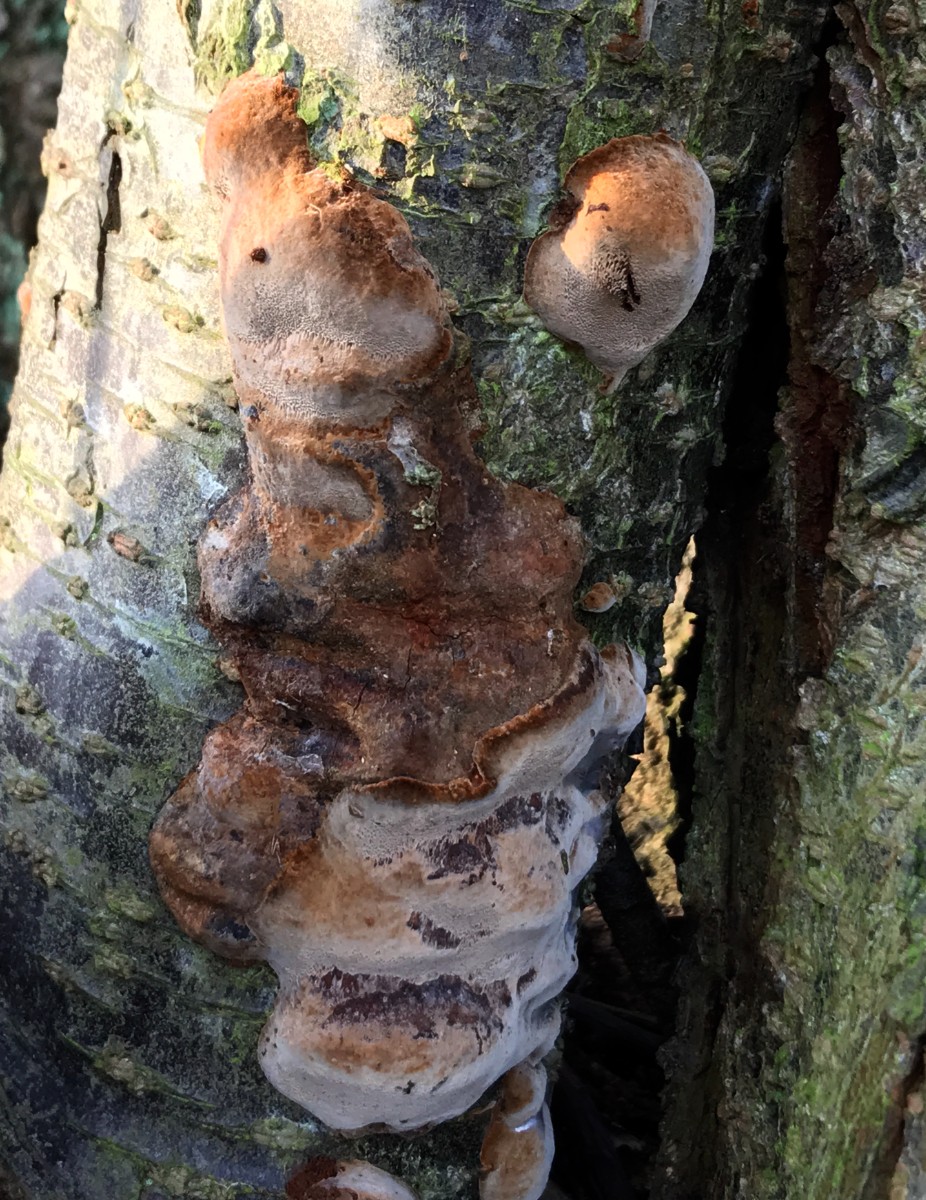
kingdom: Fungi
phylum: Basidiomycota
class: Agaricomycetes
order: Hymenochaetales
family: Hymenochaetaceae
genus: Phellinus
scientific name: Phellinus pomaceus
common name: blomme-ildporesvamp
